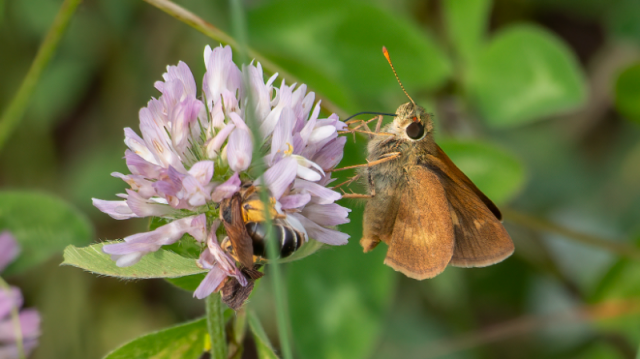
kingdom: Animalia
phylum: Arthropoda
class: Insecta
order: Lepidoptera
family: Hesperiidae
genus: Polites
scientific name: Polites egeremet
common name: Northern Broken-Dash
